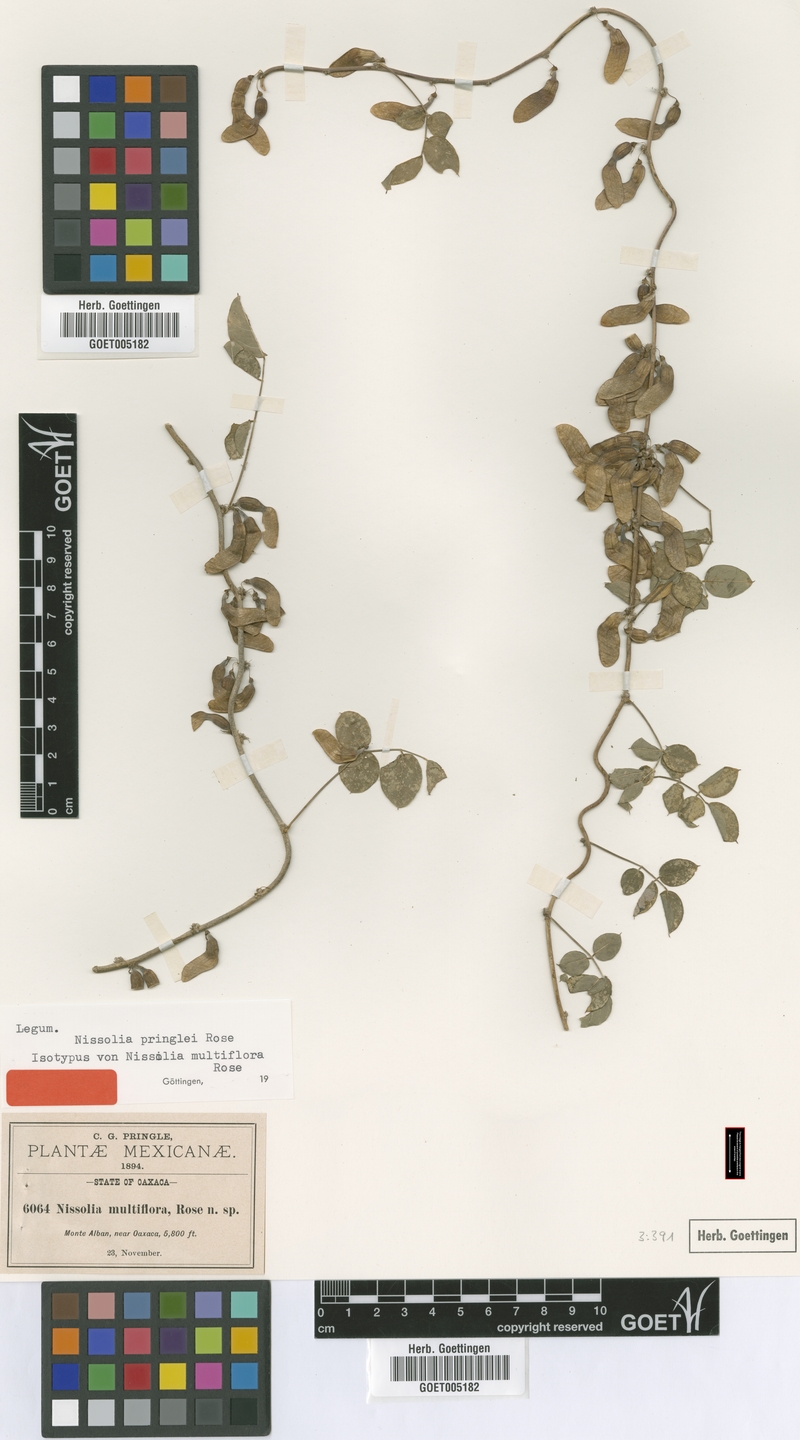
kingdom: Plantae
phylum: Tracheophyta
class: Magnoliopsida
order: Fabales
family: Fabaceae
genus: Nissolia
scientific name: Nissolia pringlei
